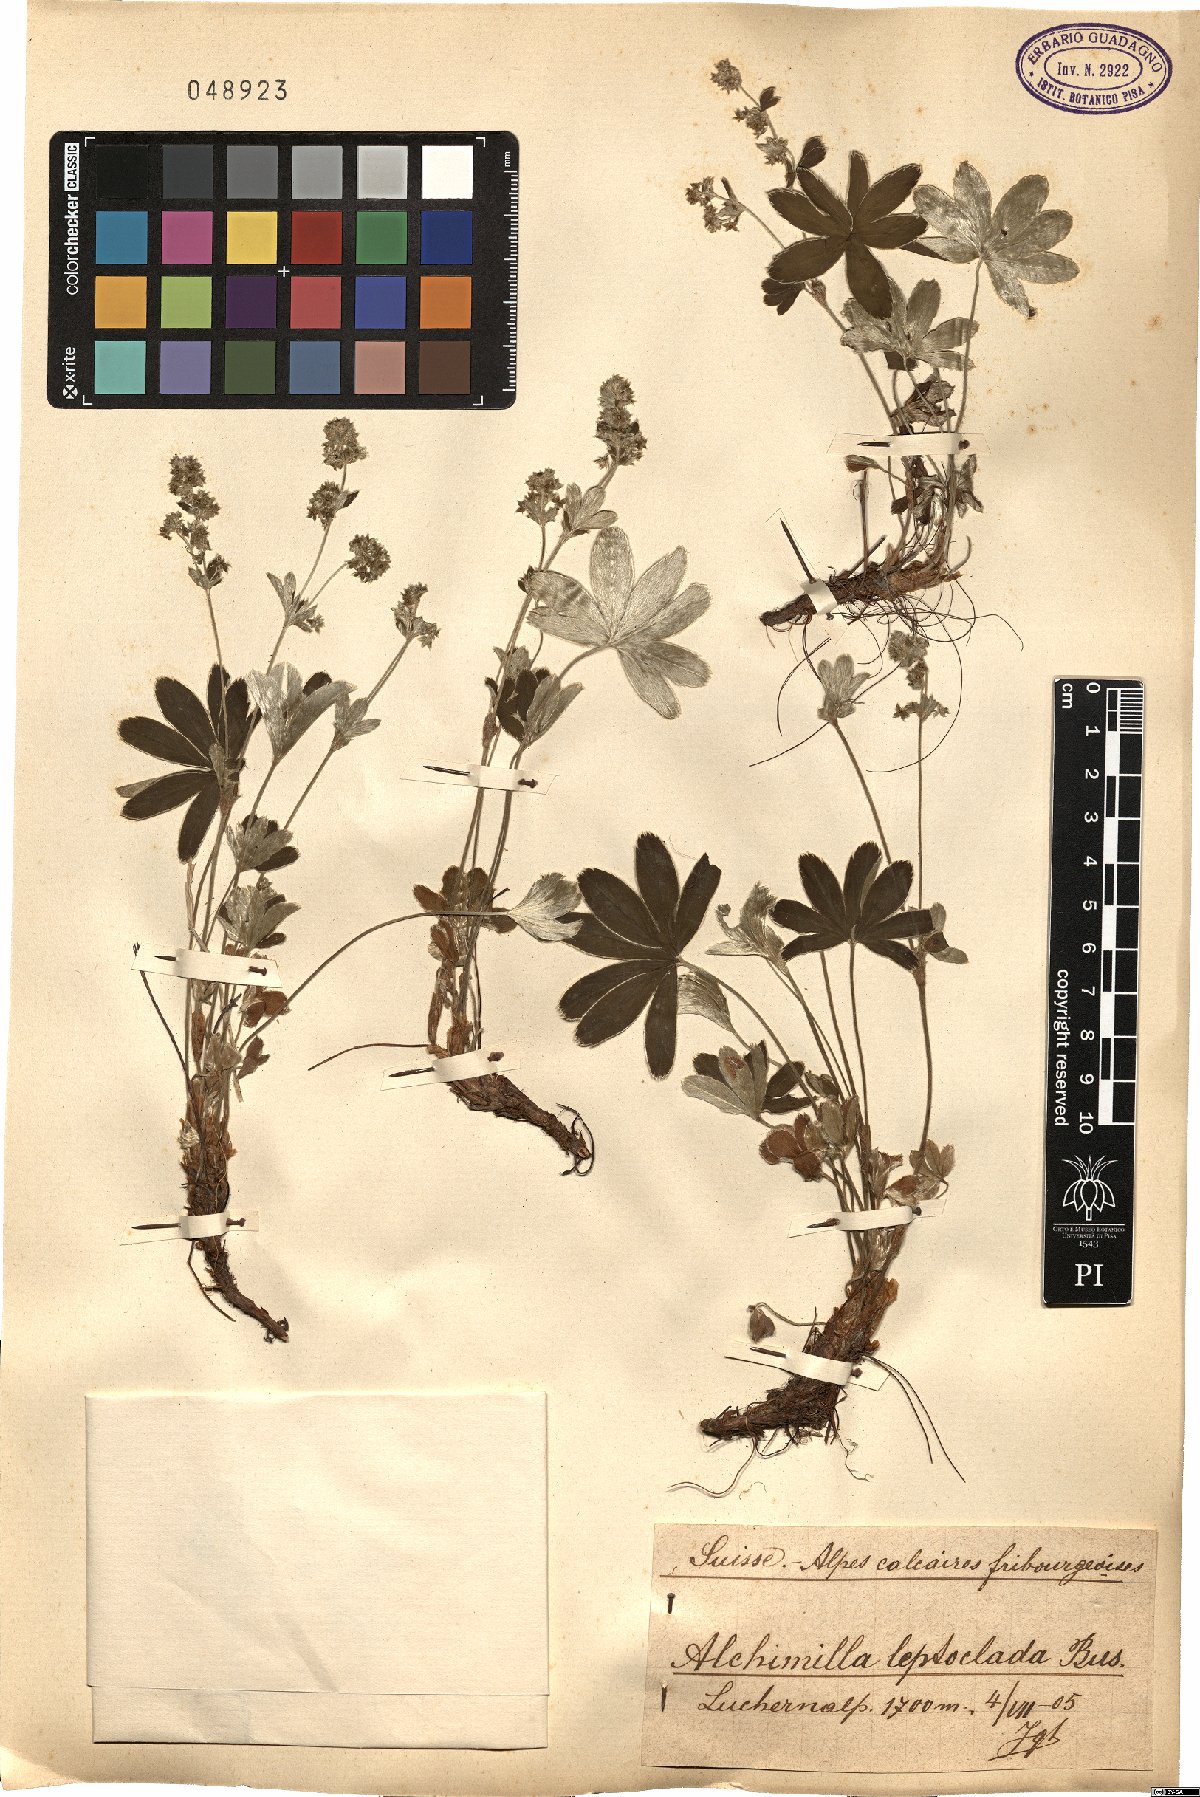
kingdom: Plantae
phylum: Tracheophyta
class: Magnoliopsida
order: Rosales
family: Rosaceae
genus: Alchemilla
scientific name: Alchemilla leptoclada
